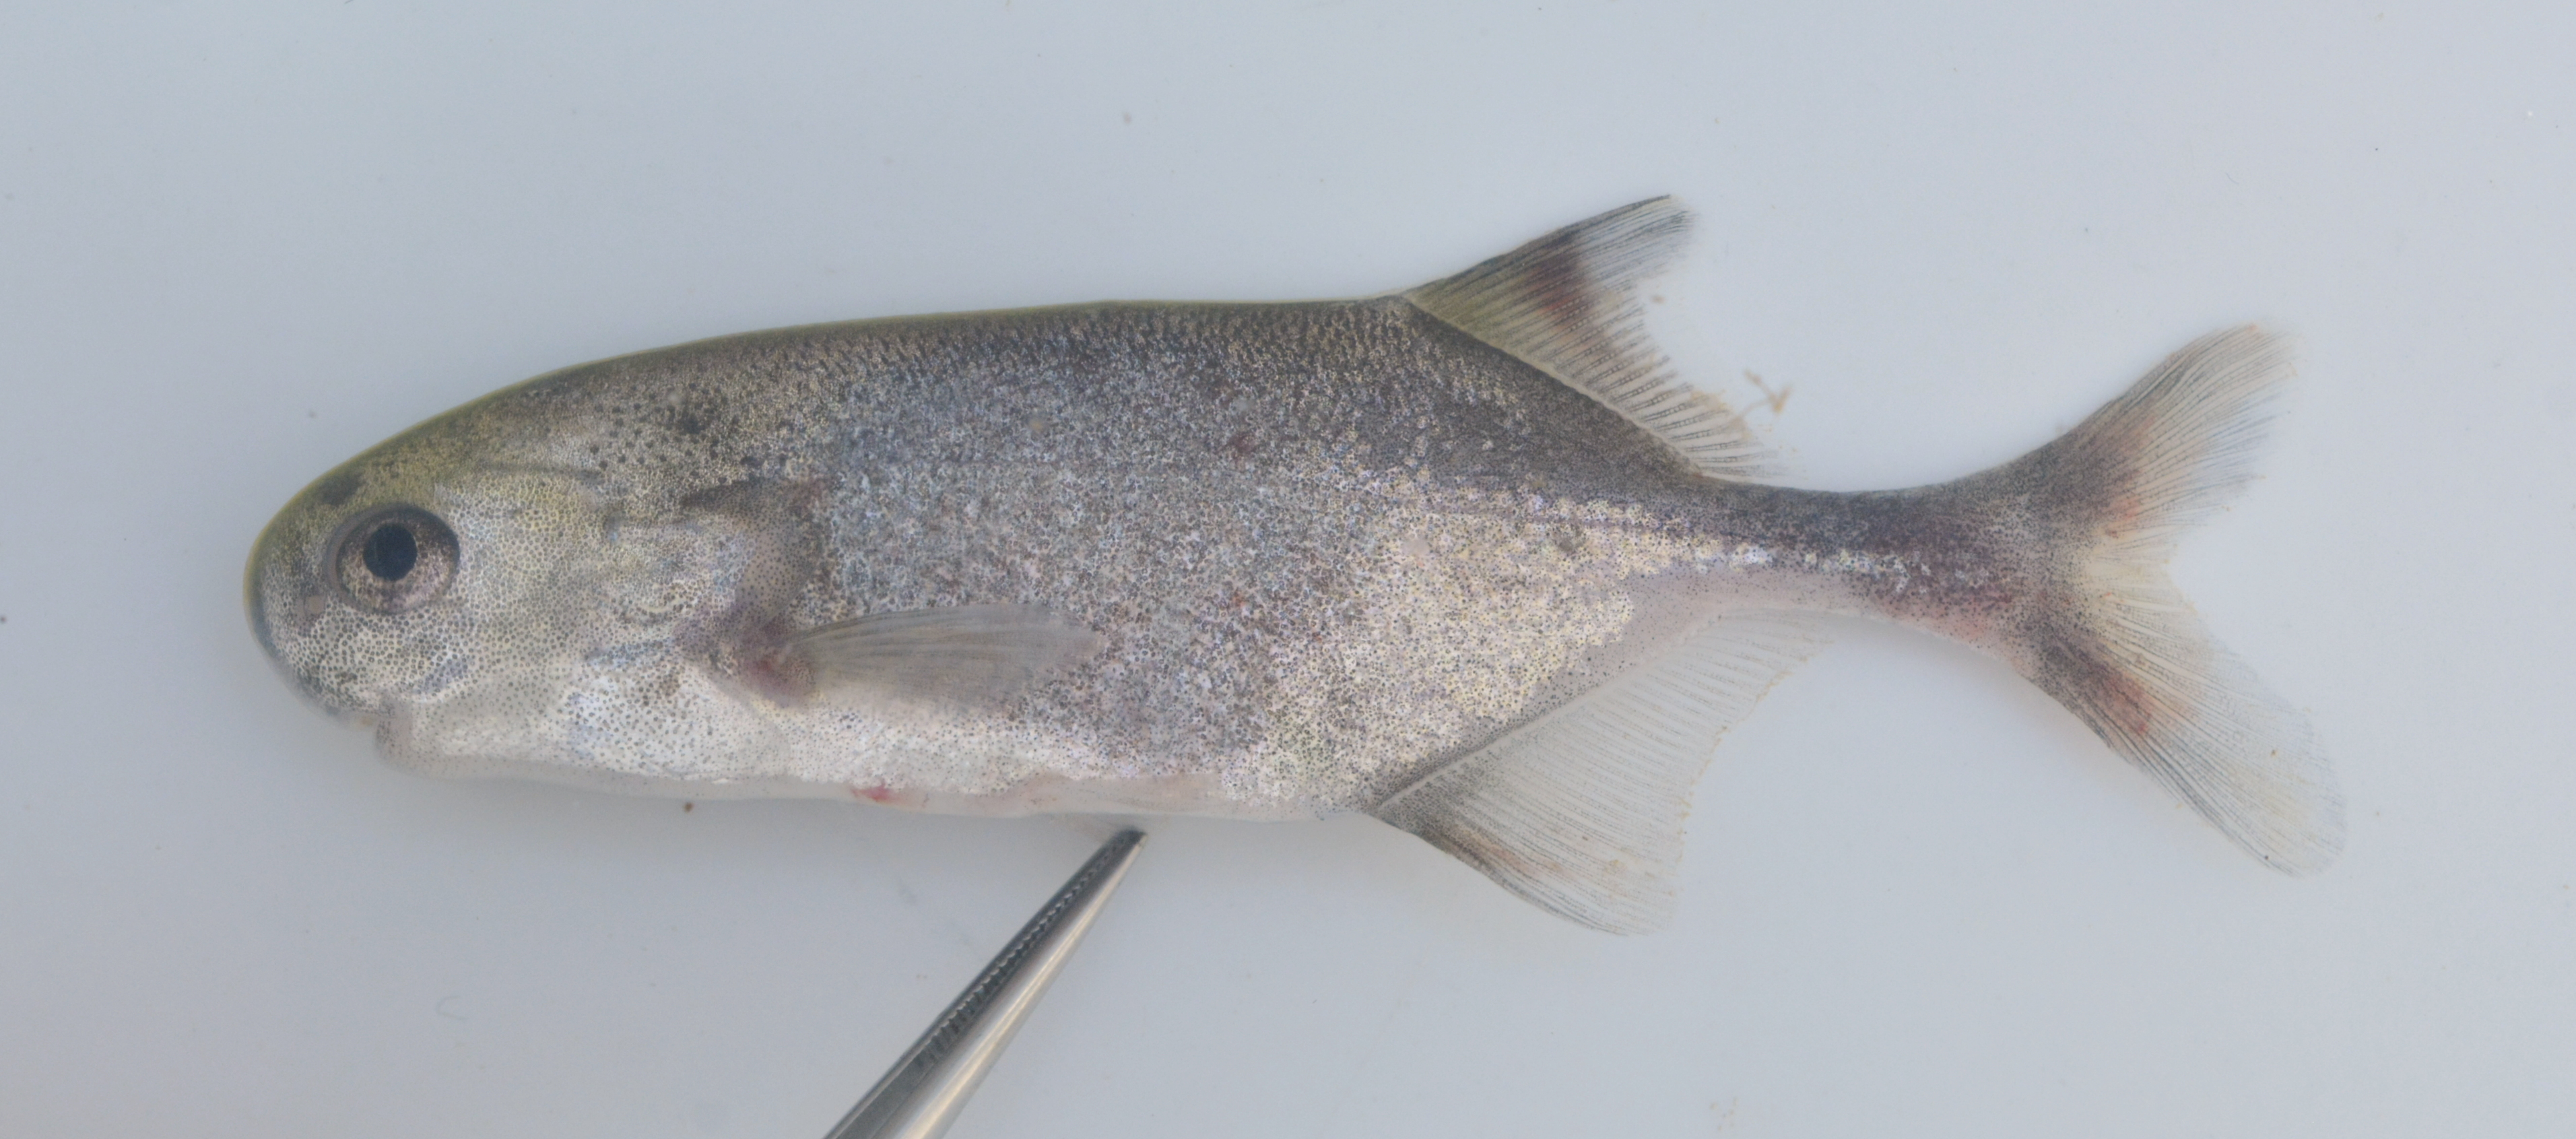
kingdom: Animalia
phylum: Chordata
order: Osteoglossiformes
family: Mormyridae
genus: Petrocephalus
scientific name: Petrocephalus okavangensis
